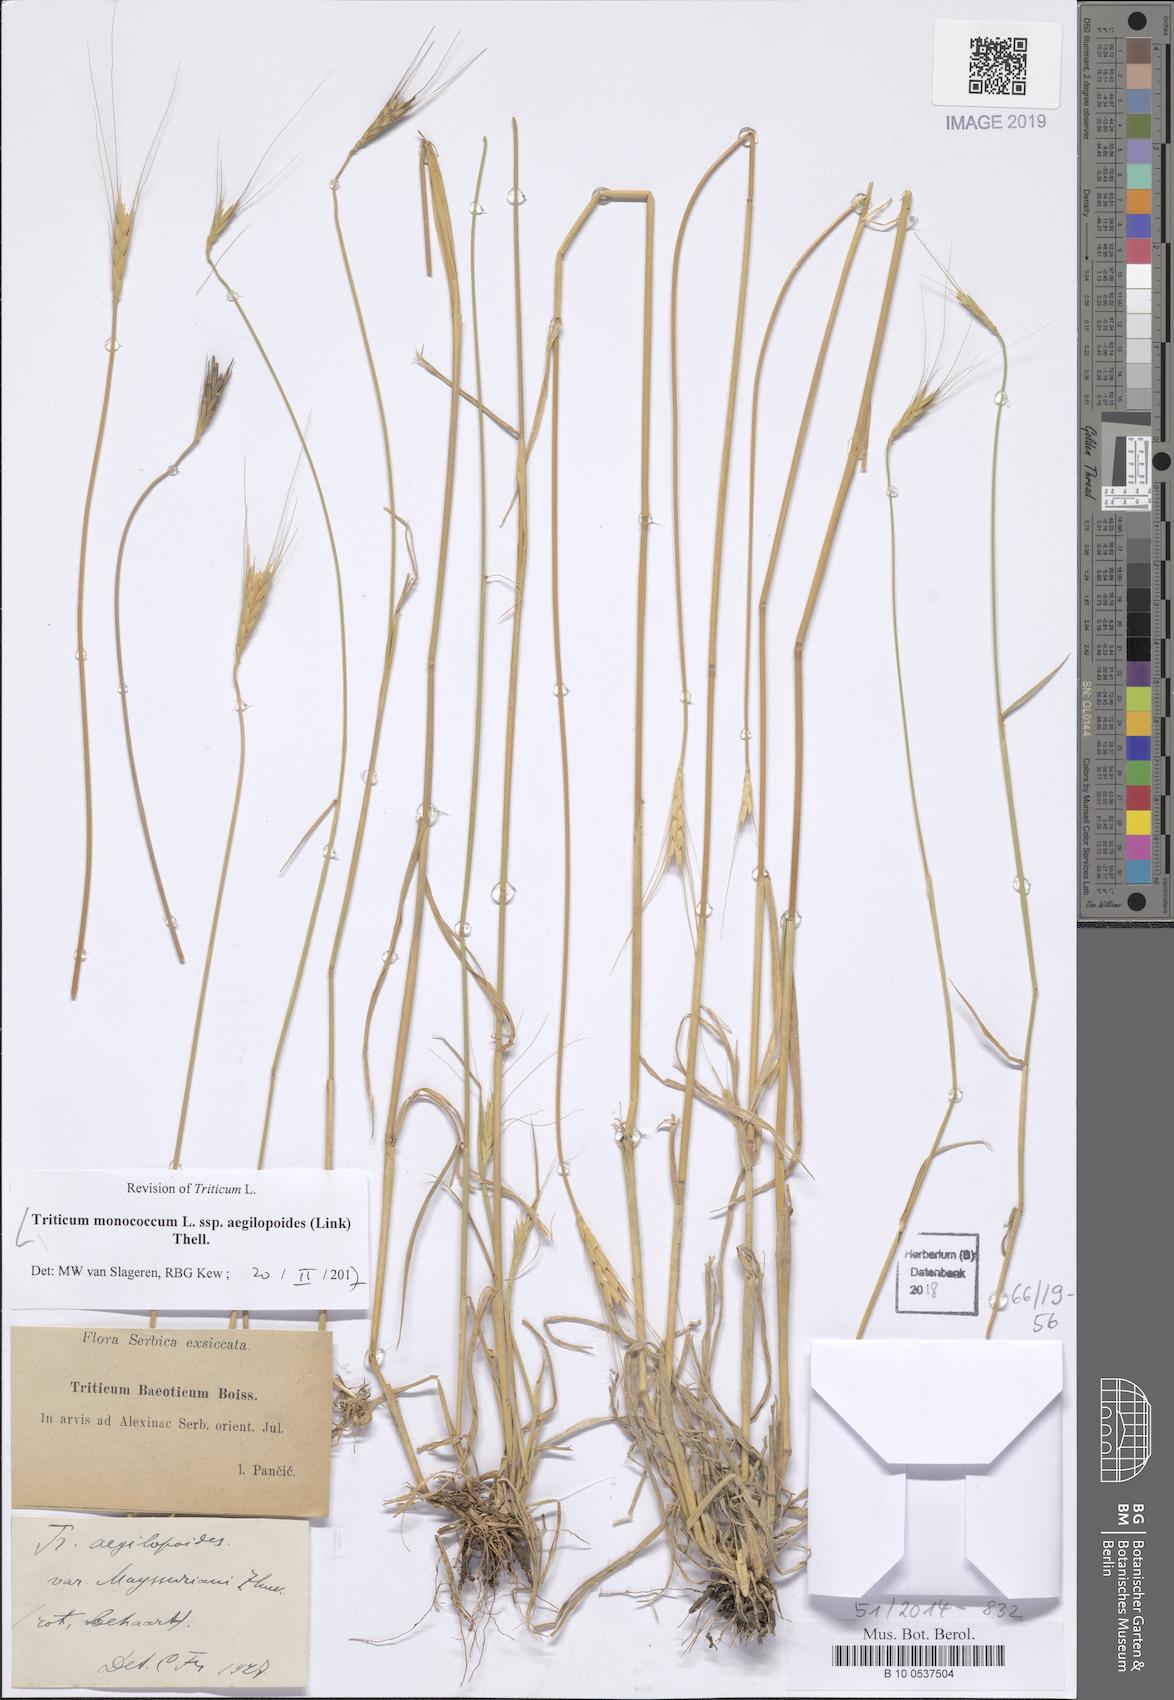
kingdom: Plantae
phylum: Tracheophyta
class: Liliopsida
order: Poales
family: Poaceae
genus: Triticum
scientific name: Triticum monococcum
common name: Einkorn
